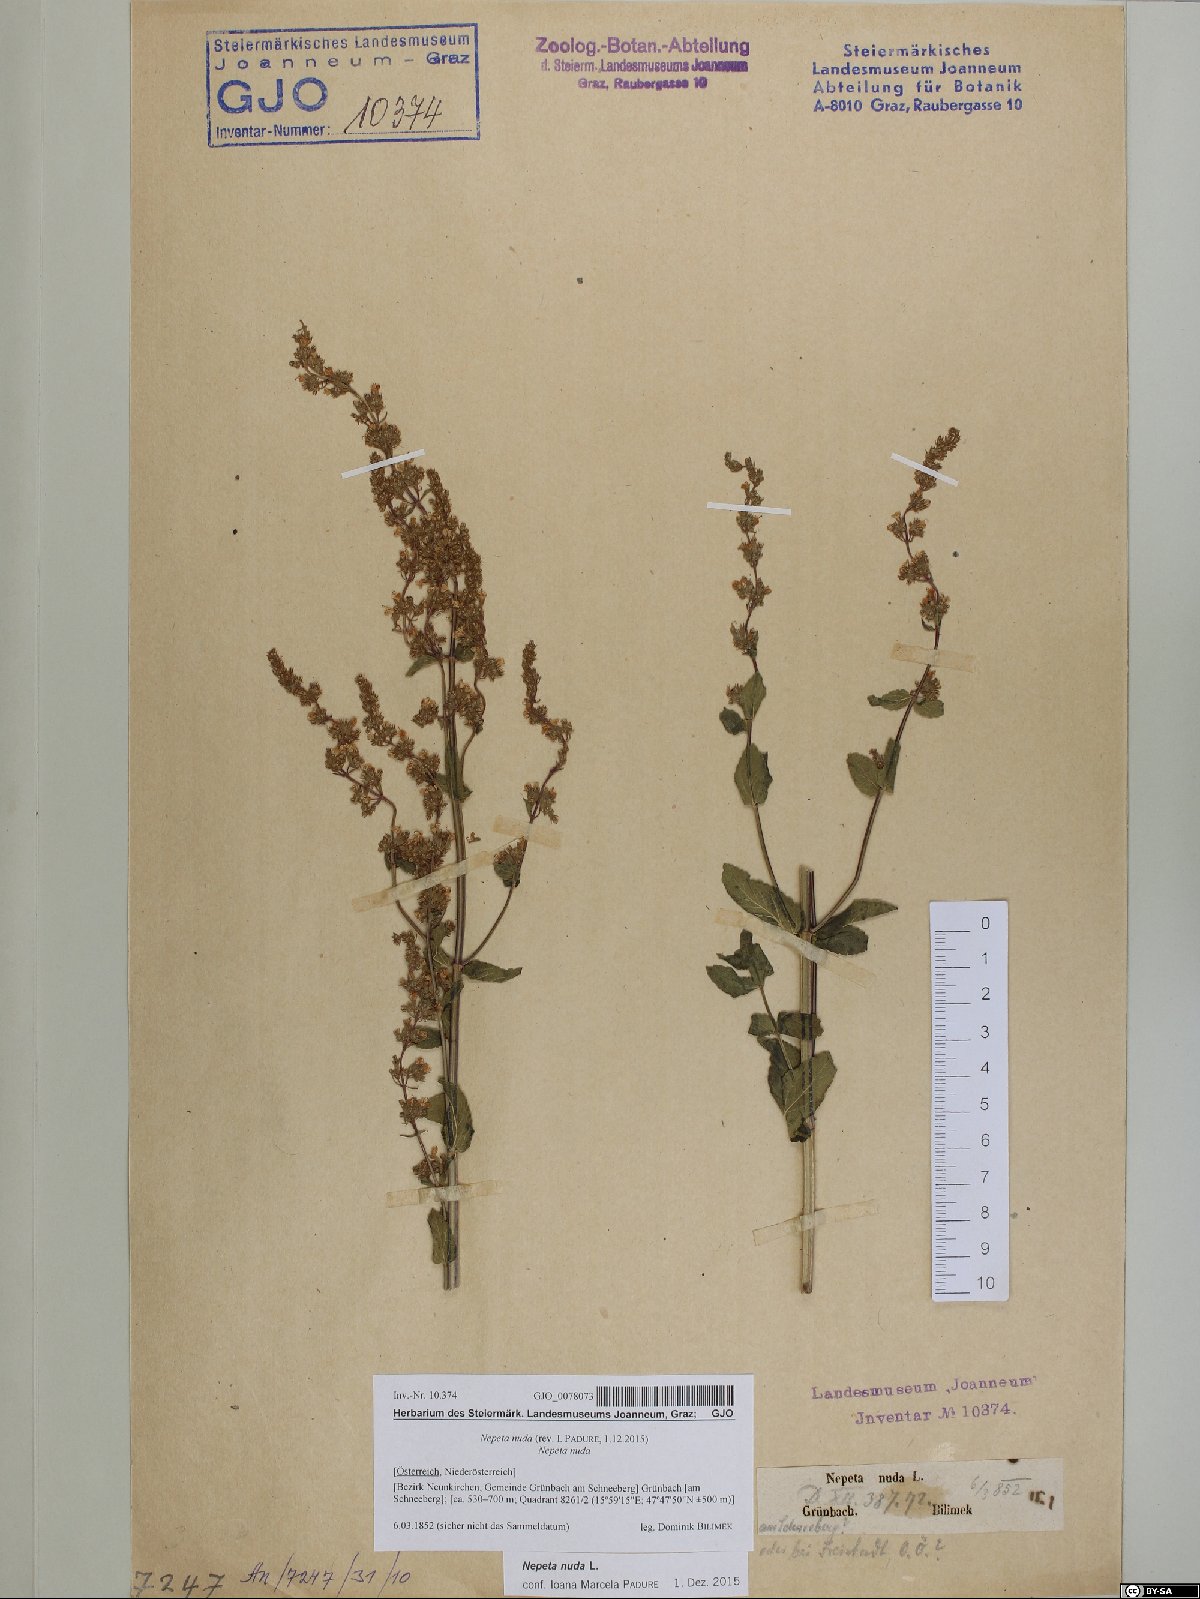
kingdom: Plantae
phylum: Tracheophyta
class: Magnoliopsida
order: Lamiales
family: Lamiaceae
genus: Nepeta
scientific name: Nepeta nuda
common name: Hairless catmint
